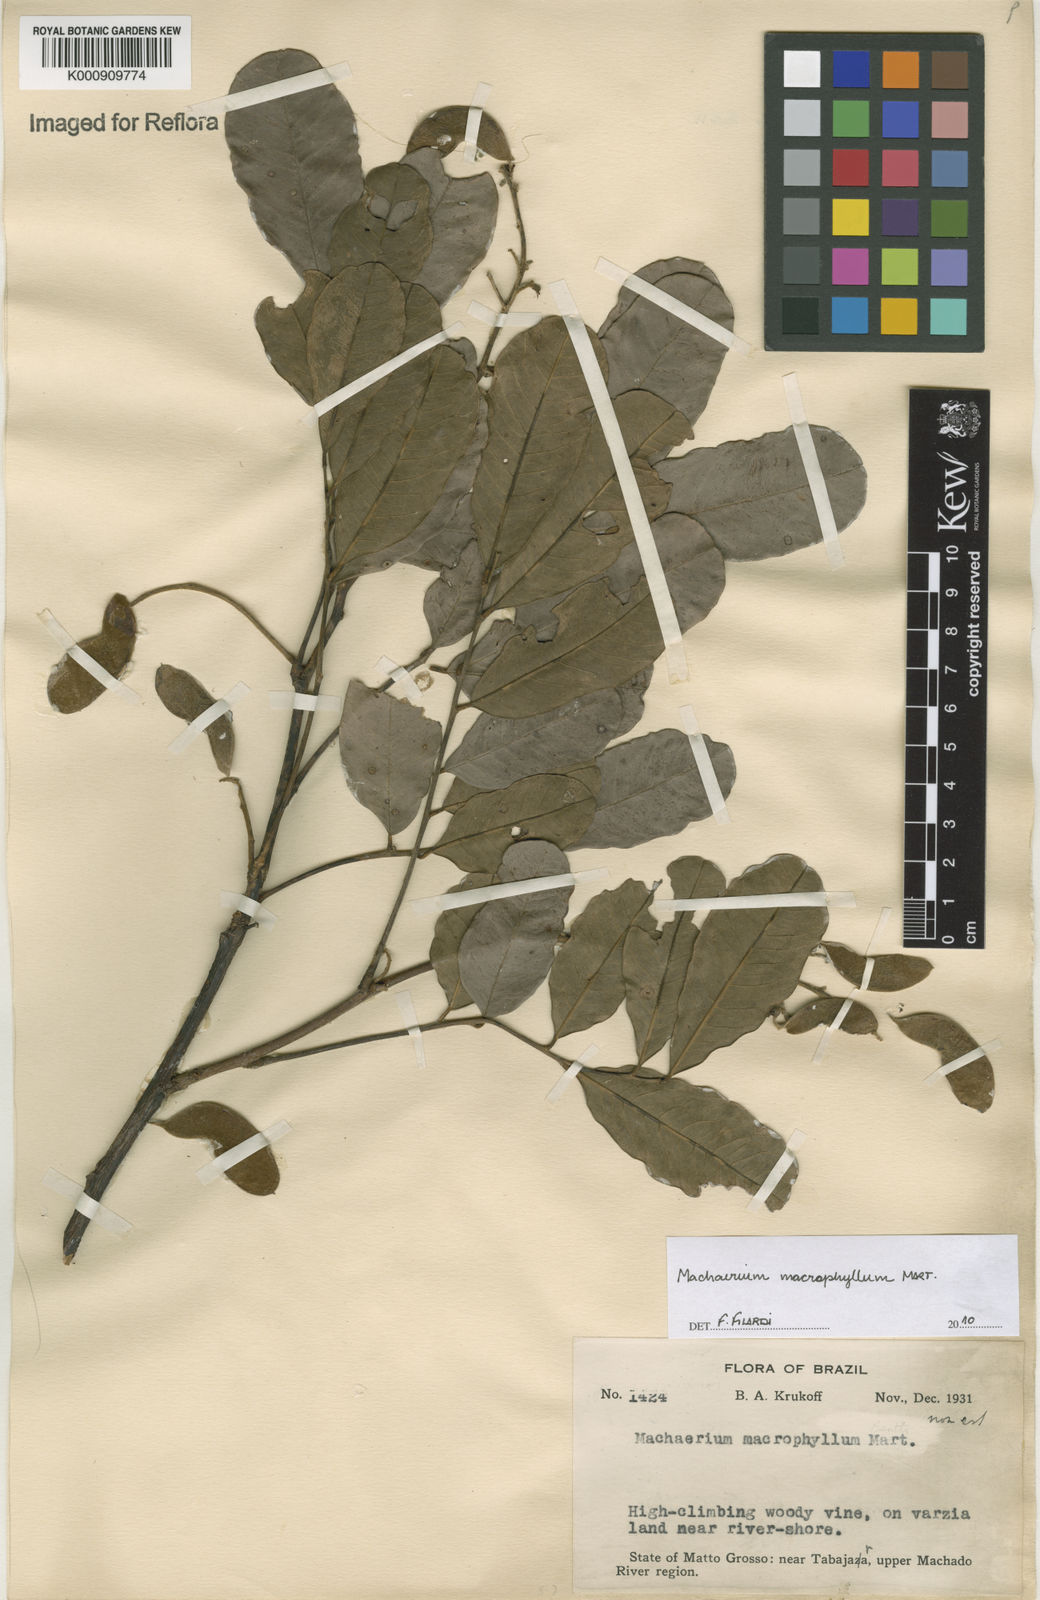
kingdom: Plantae
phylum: Tracheophyta
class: Magnoliopsida
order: Fabales
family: Fabaceae
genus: Machaerium
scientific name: Machaerium macrophyllum
